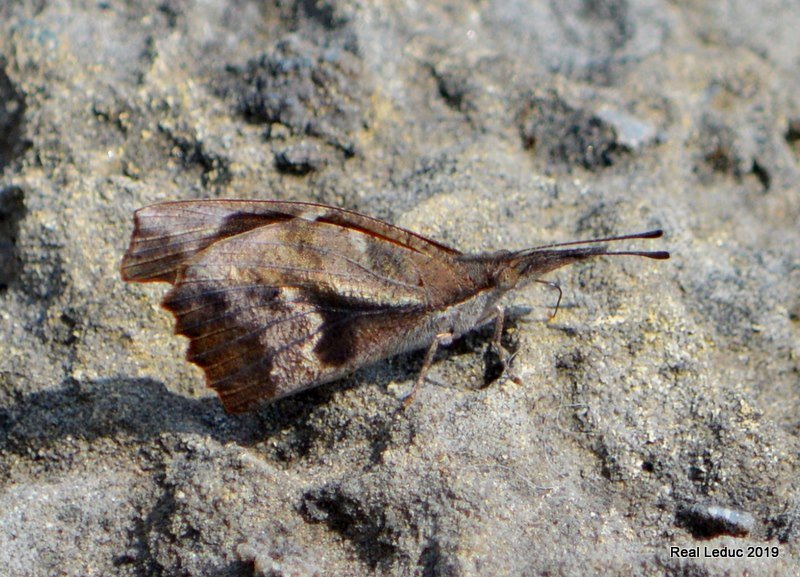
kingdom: Animalia
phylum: Arthropoda
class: Insecta
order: Lepidoptera
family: Nymphalidae
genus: Libytheana
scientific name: Libytheana carinenta
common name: American Snout
